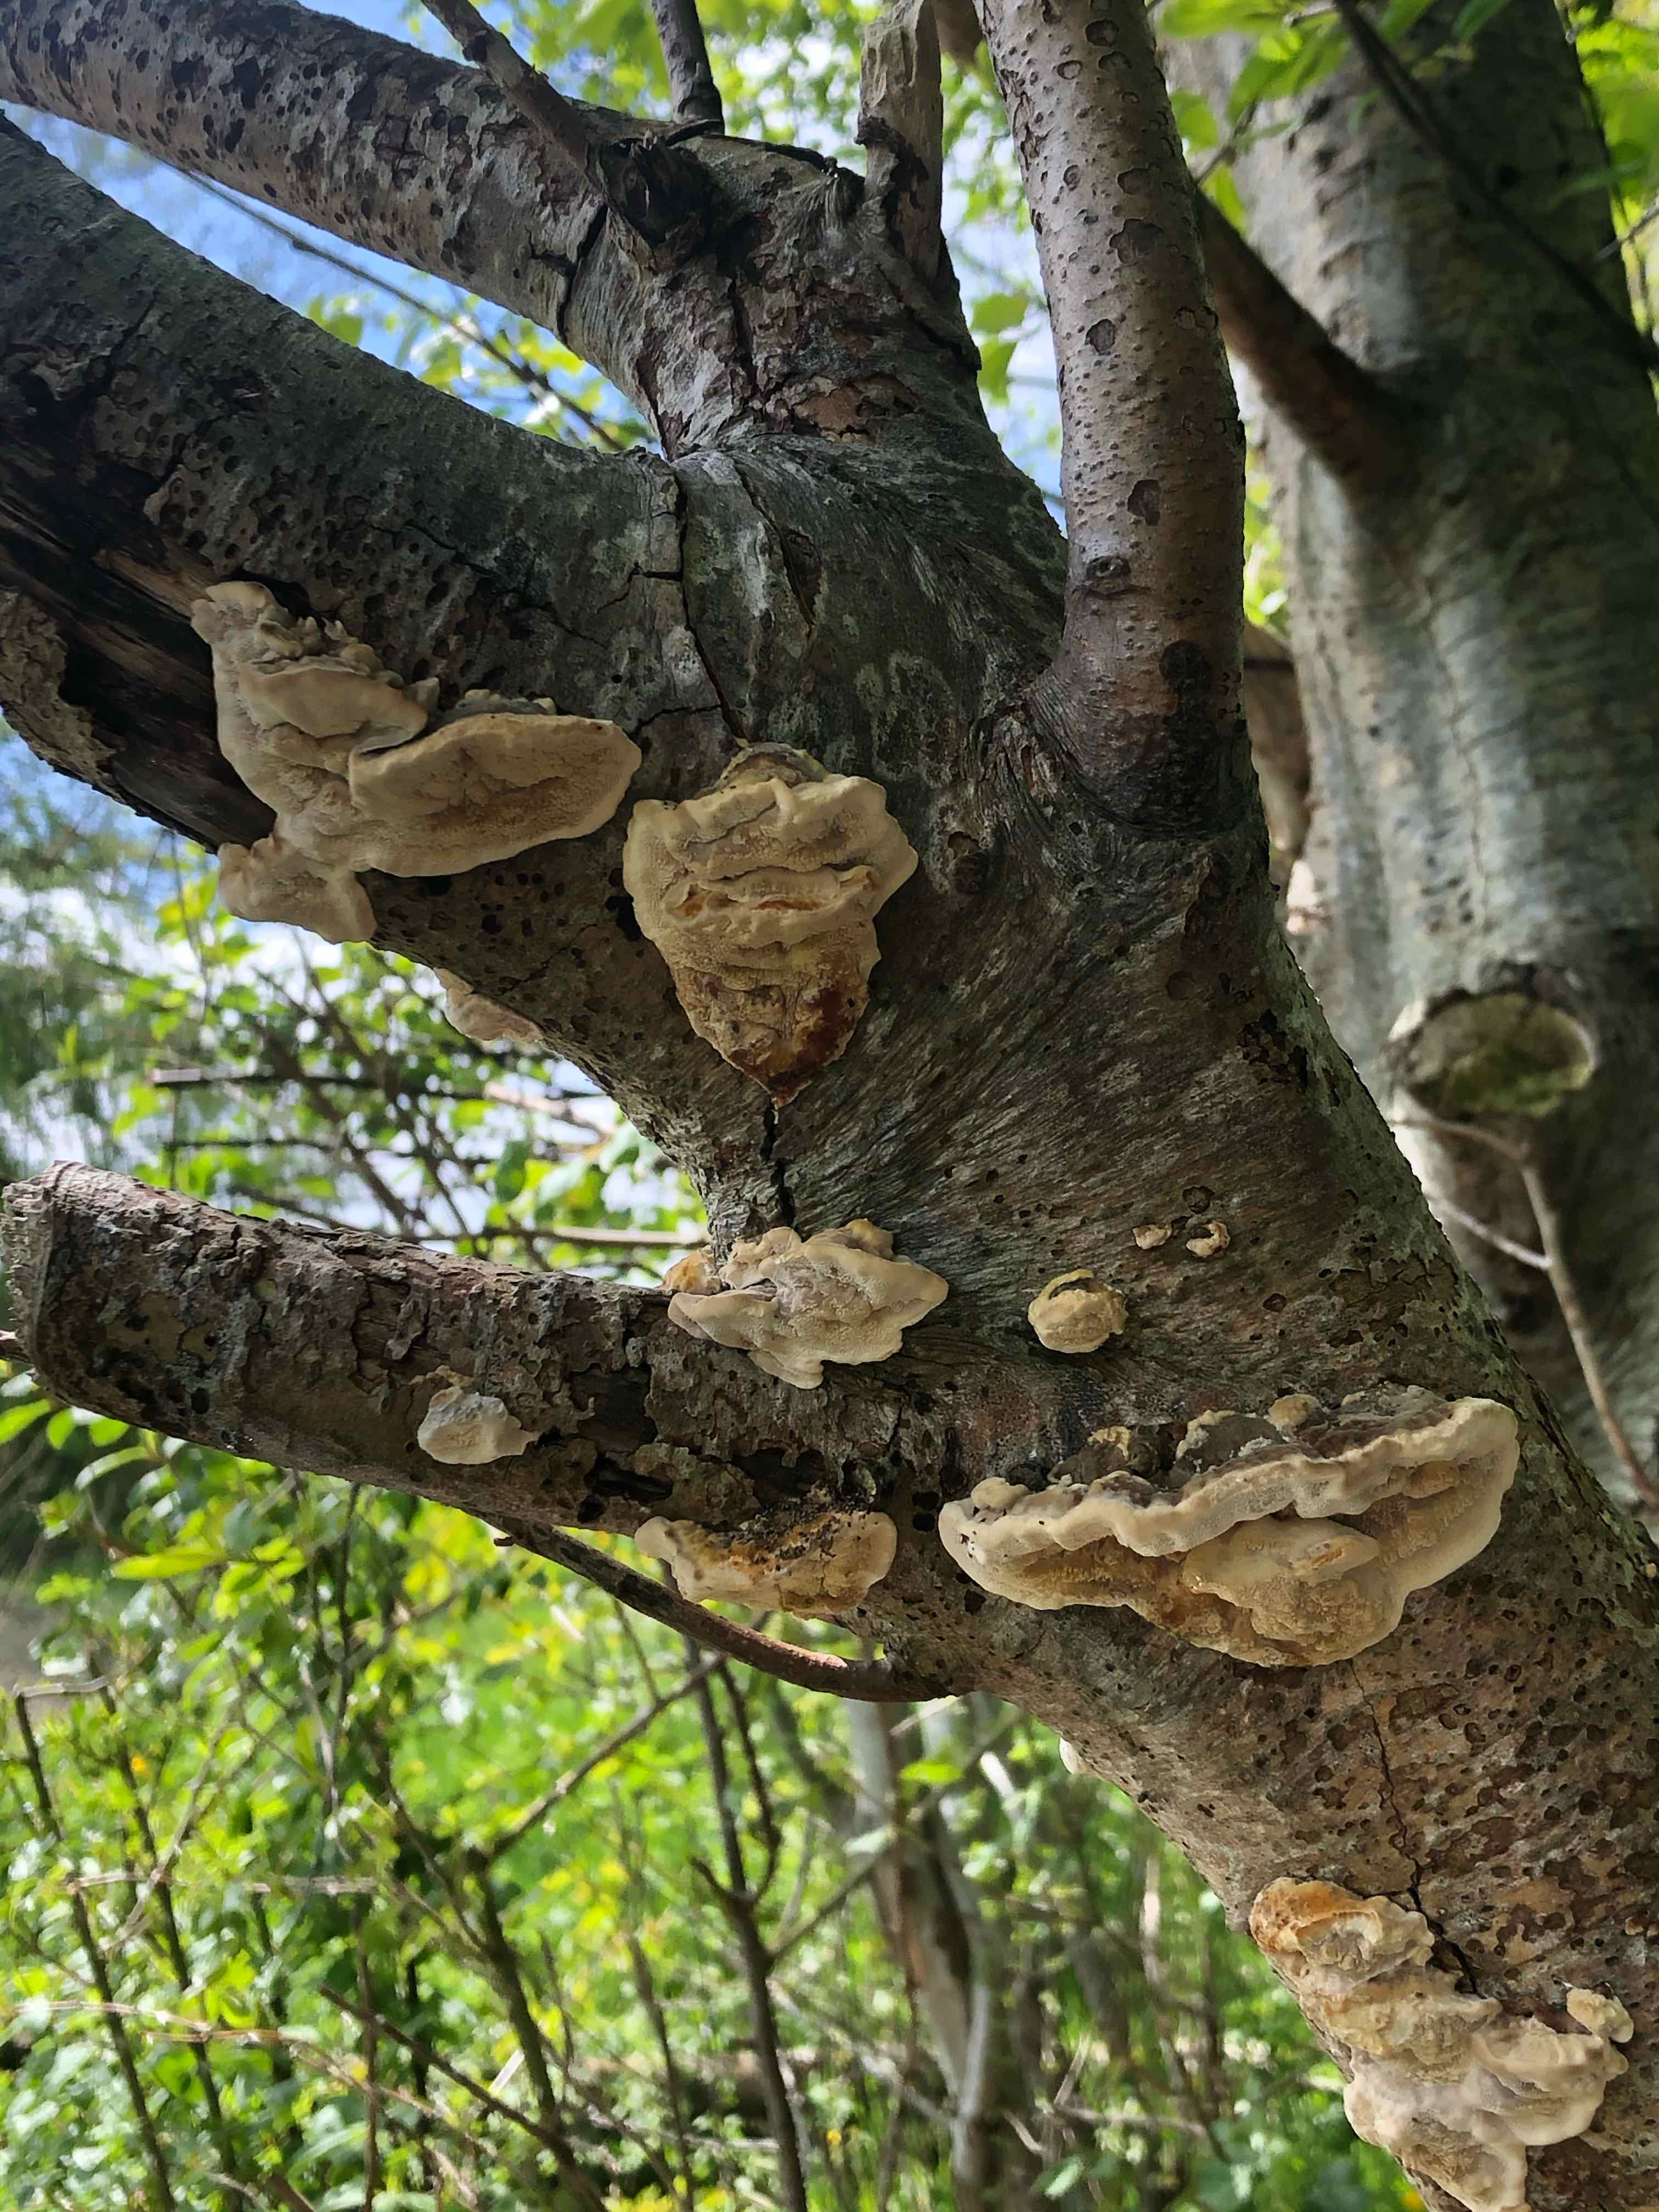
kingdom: Fungi
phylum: Basidiomycota
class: Agaricomycetes
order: Hymenochaetales
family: Hymenochaetaceae
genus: Xanthoporia
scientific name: Xanthoporia radiata
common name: elle-spejlporesvamp
